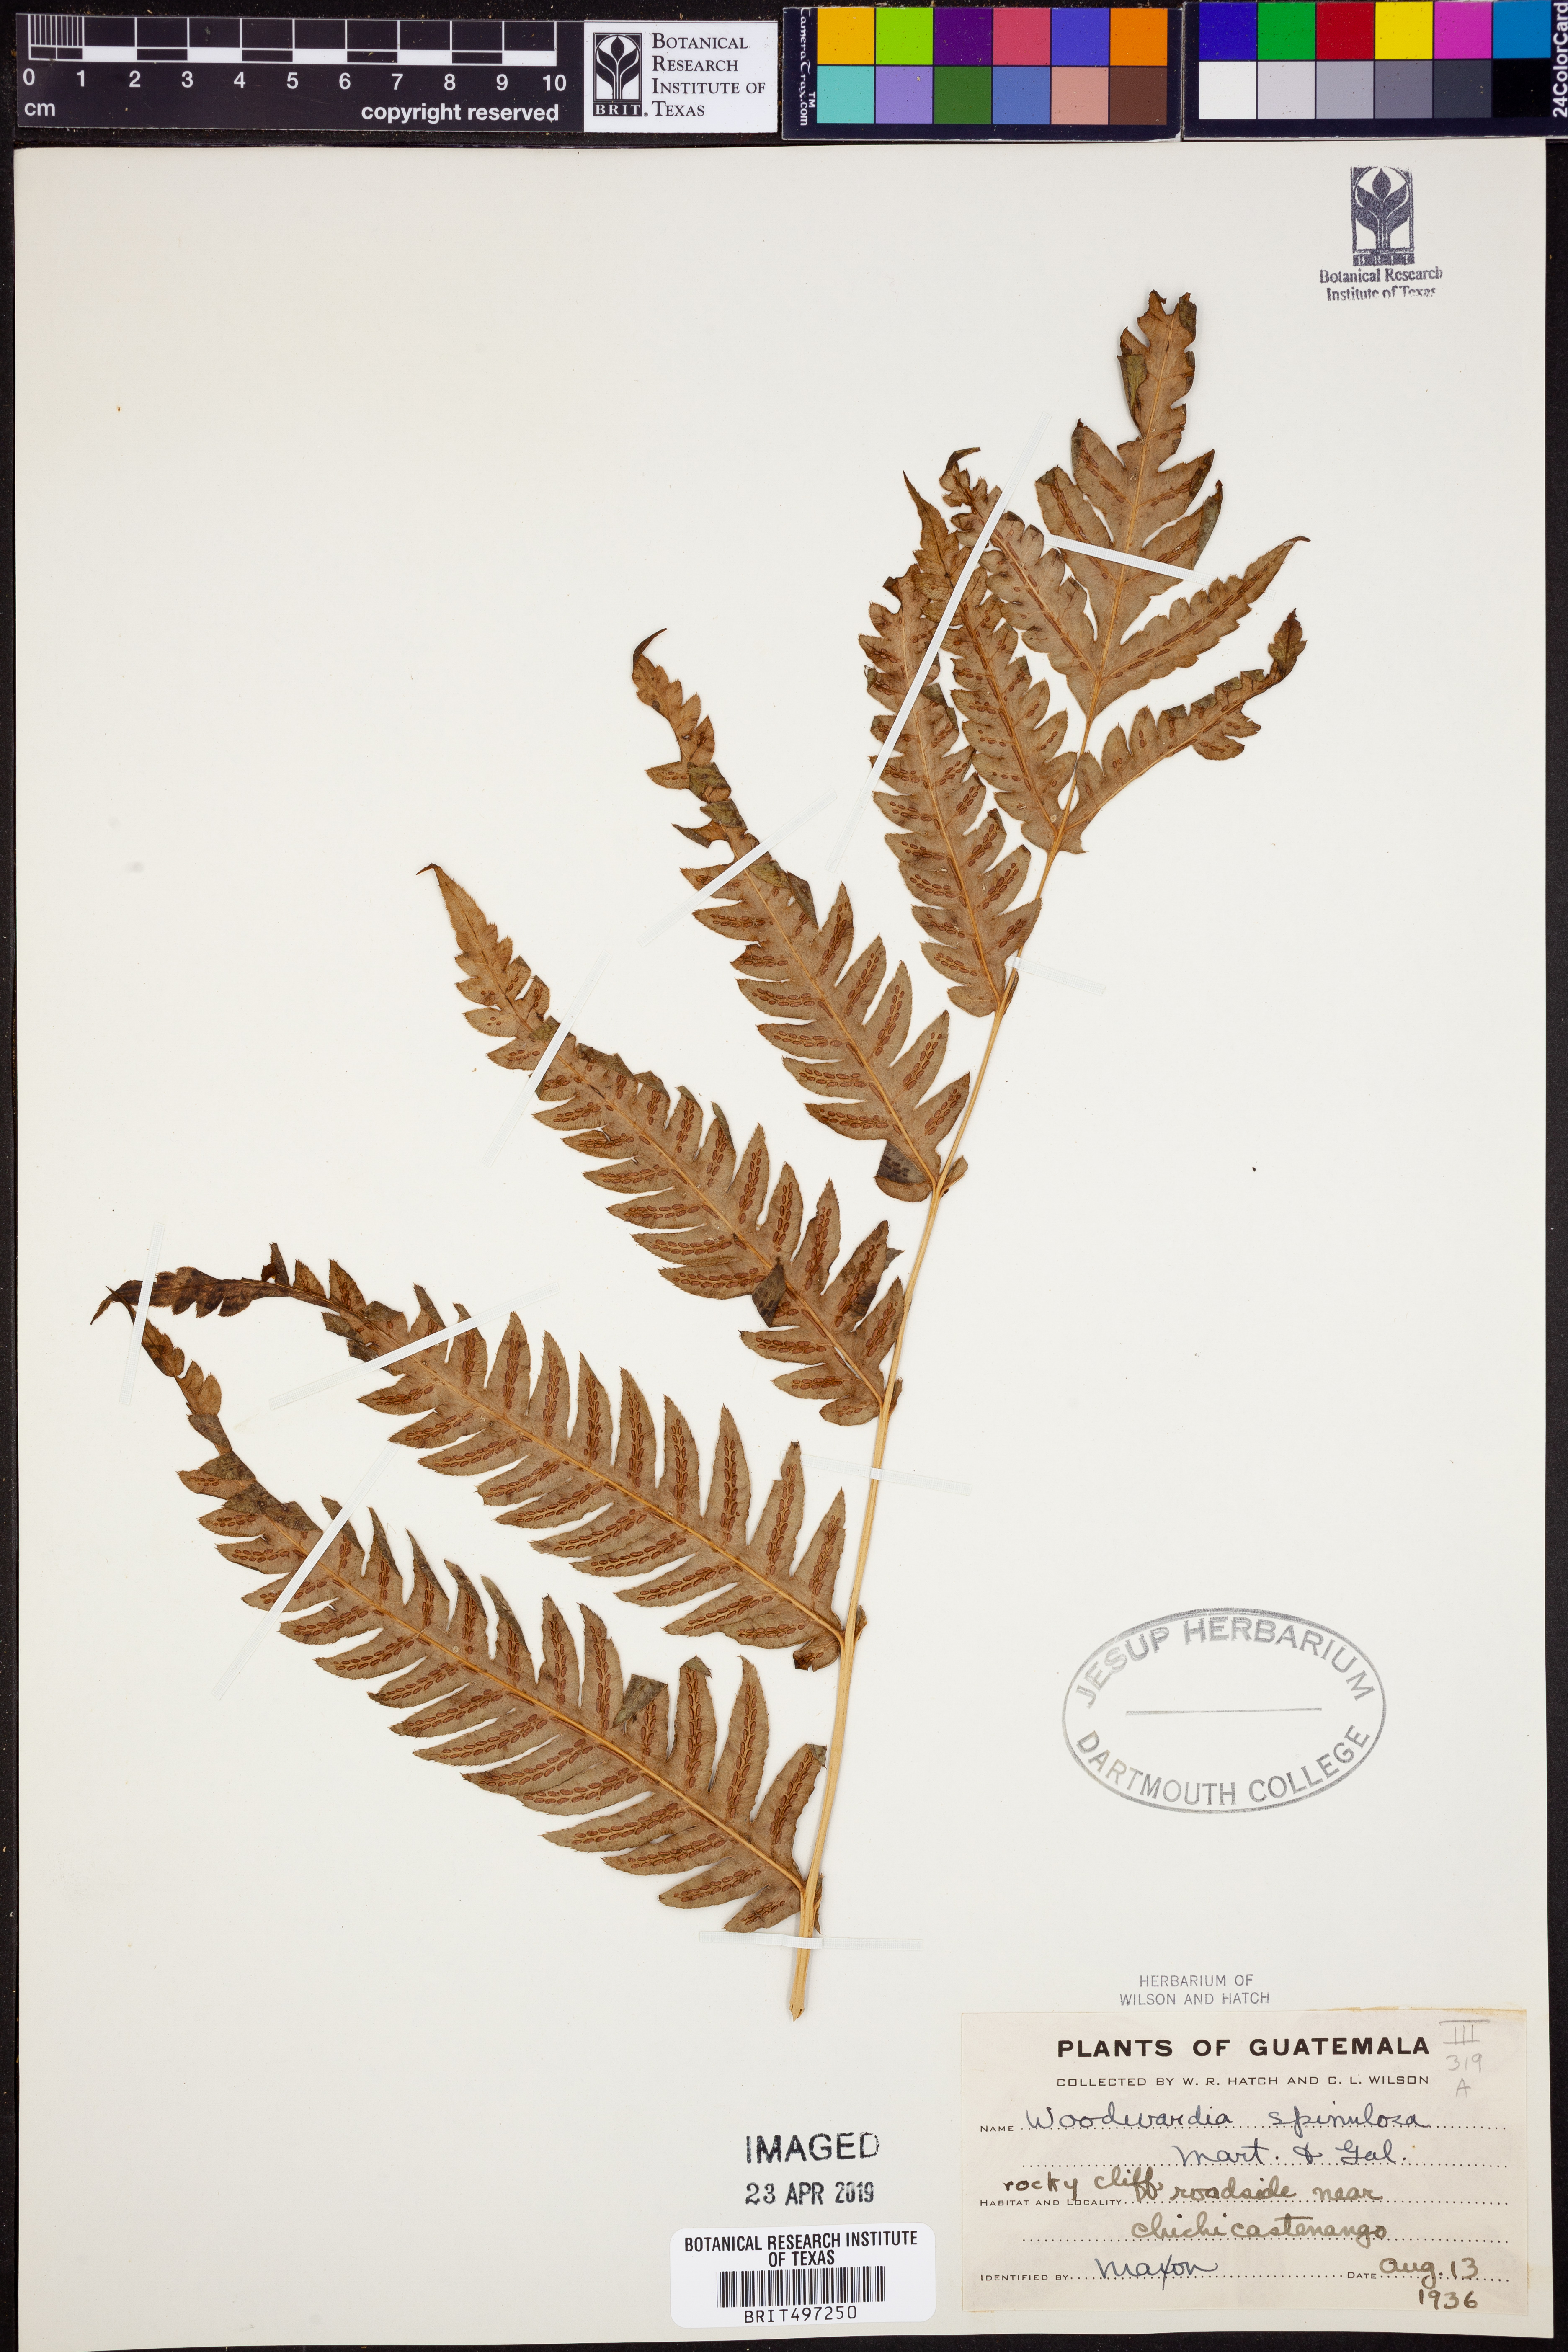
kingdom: Plantae
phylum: Tracheophyta
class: Polypodiopsida
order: Polypodiales
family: Blechnaceae
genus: Woodwardia
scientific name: Woodwardia spinulosa
